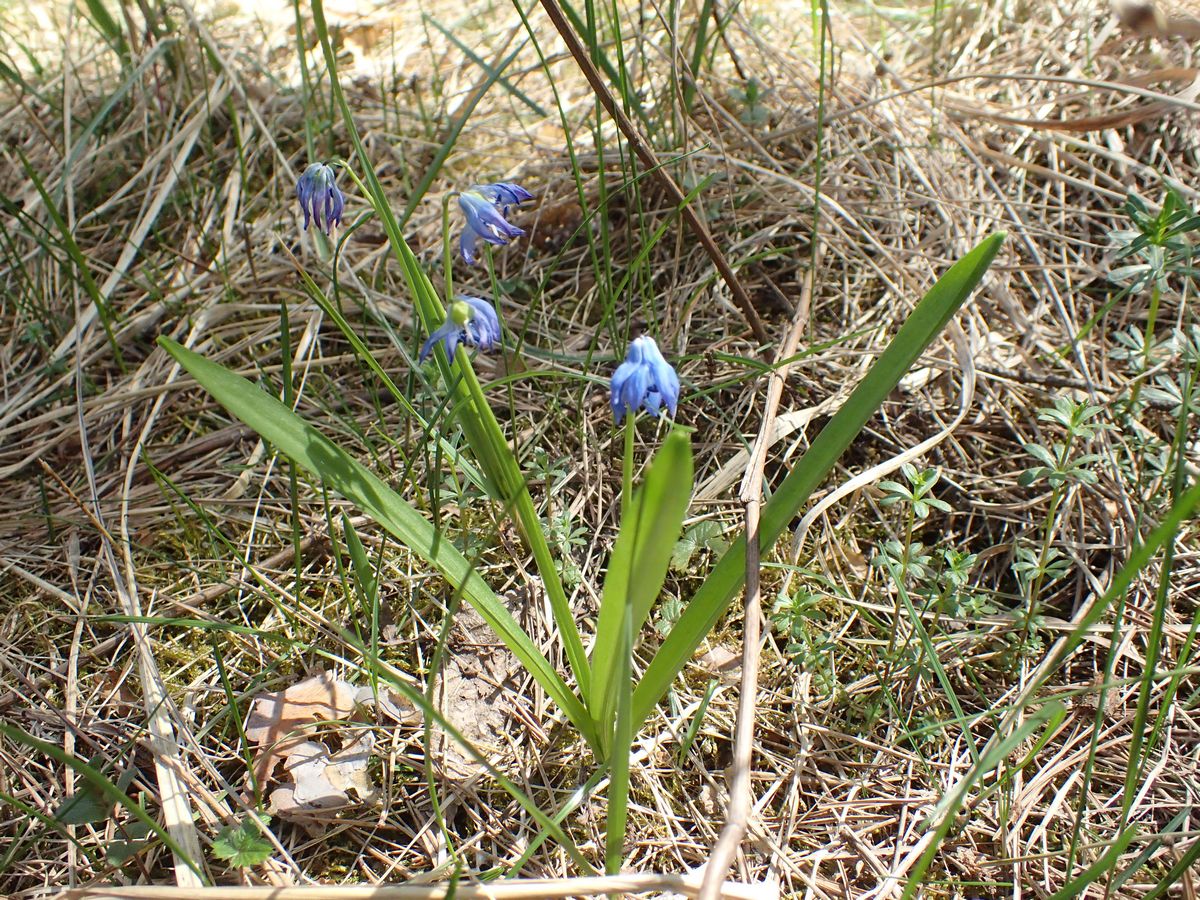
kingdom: Plantae
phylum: Tracheophyta
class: Liliopsida
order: Asparagales
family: Asparagaceae
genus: Scilla
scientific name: Scilla siberica
